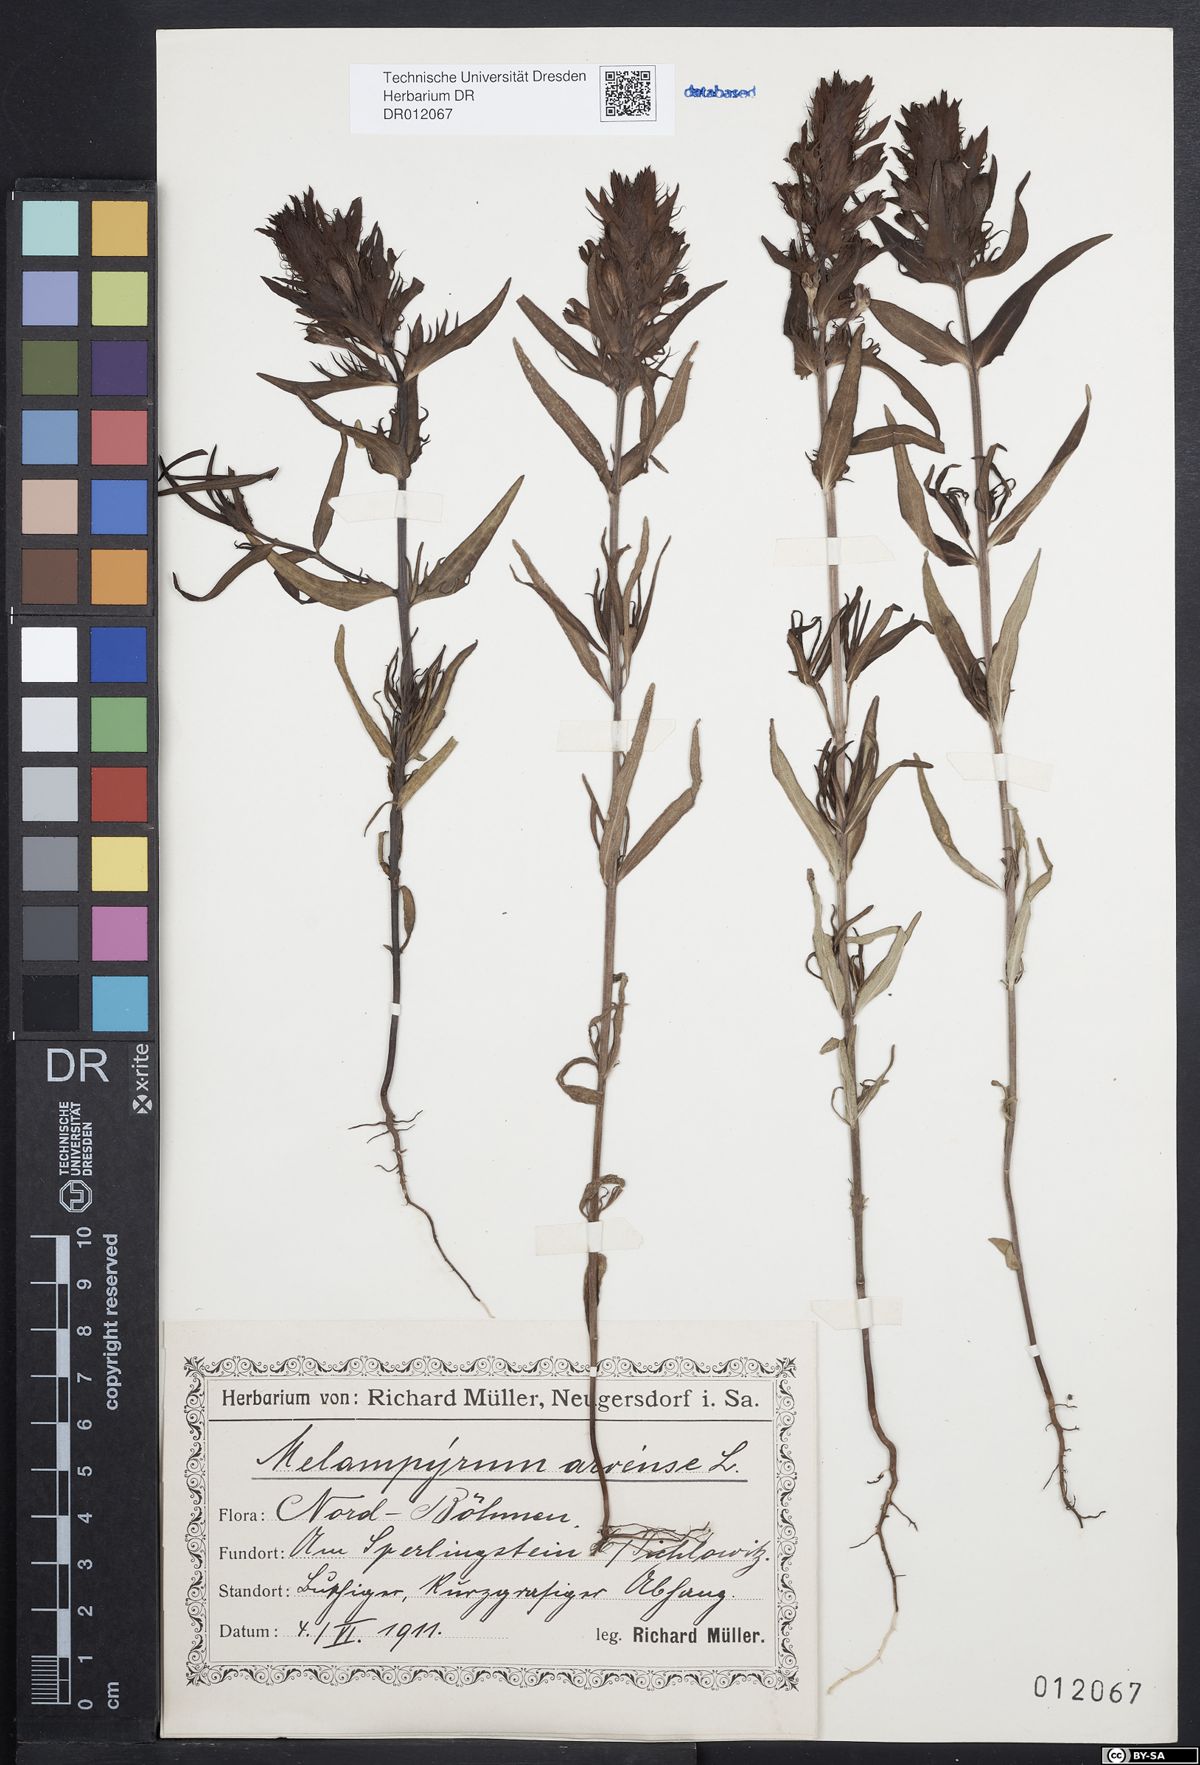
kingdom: Plantae
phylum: Tracheophyta
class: Magnoliopsida
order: Lamiales
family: Orobanchaceae
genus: Melampyrum
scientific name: Melampyrum arvense
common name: Field cow-wheat
